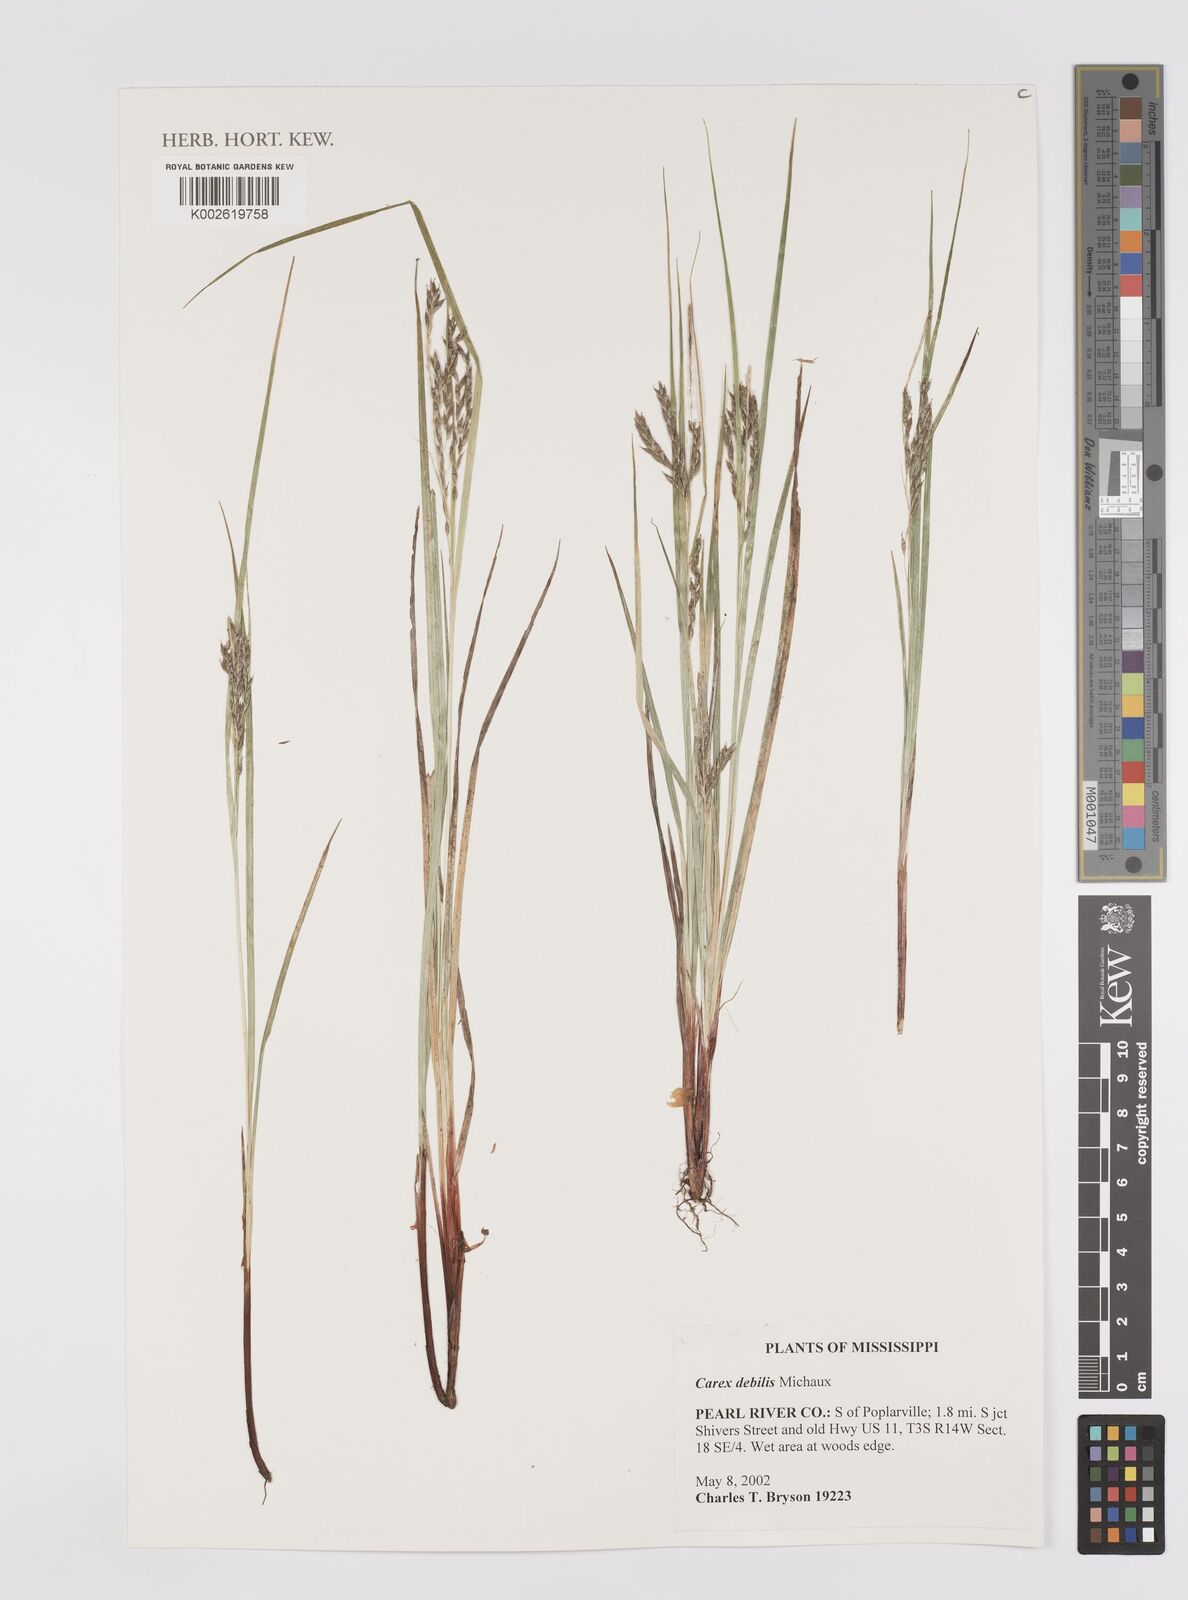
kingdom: Plantae
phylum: Tracheophyta
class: Liliopsida
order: Poales
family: Cyperaceae
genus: Carex
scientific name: Carex debilis
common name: White-edge sedge
